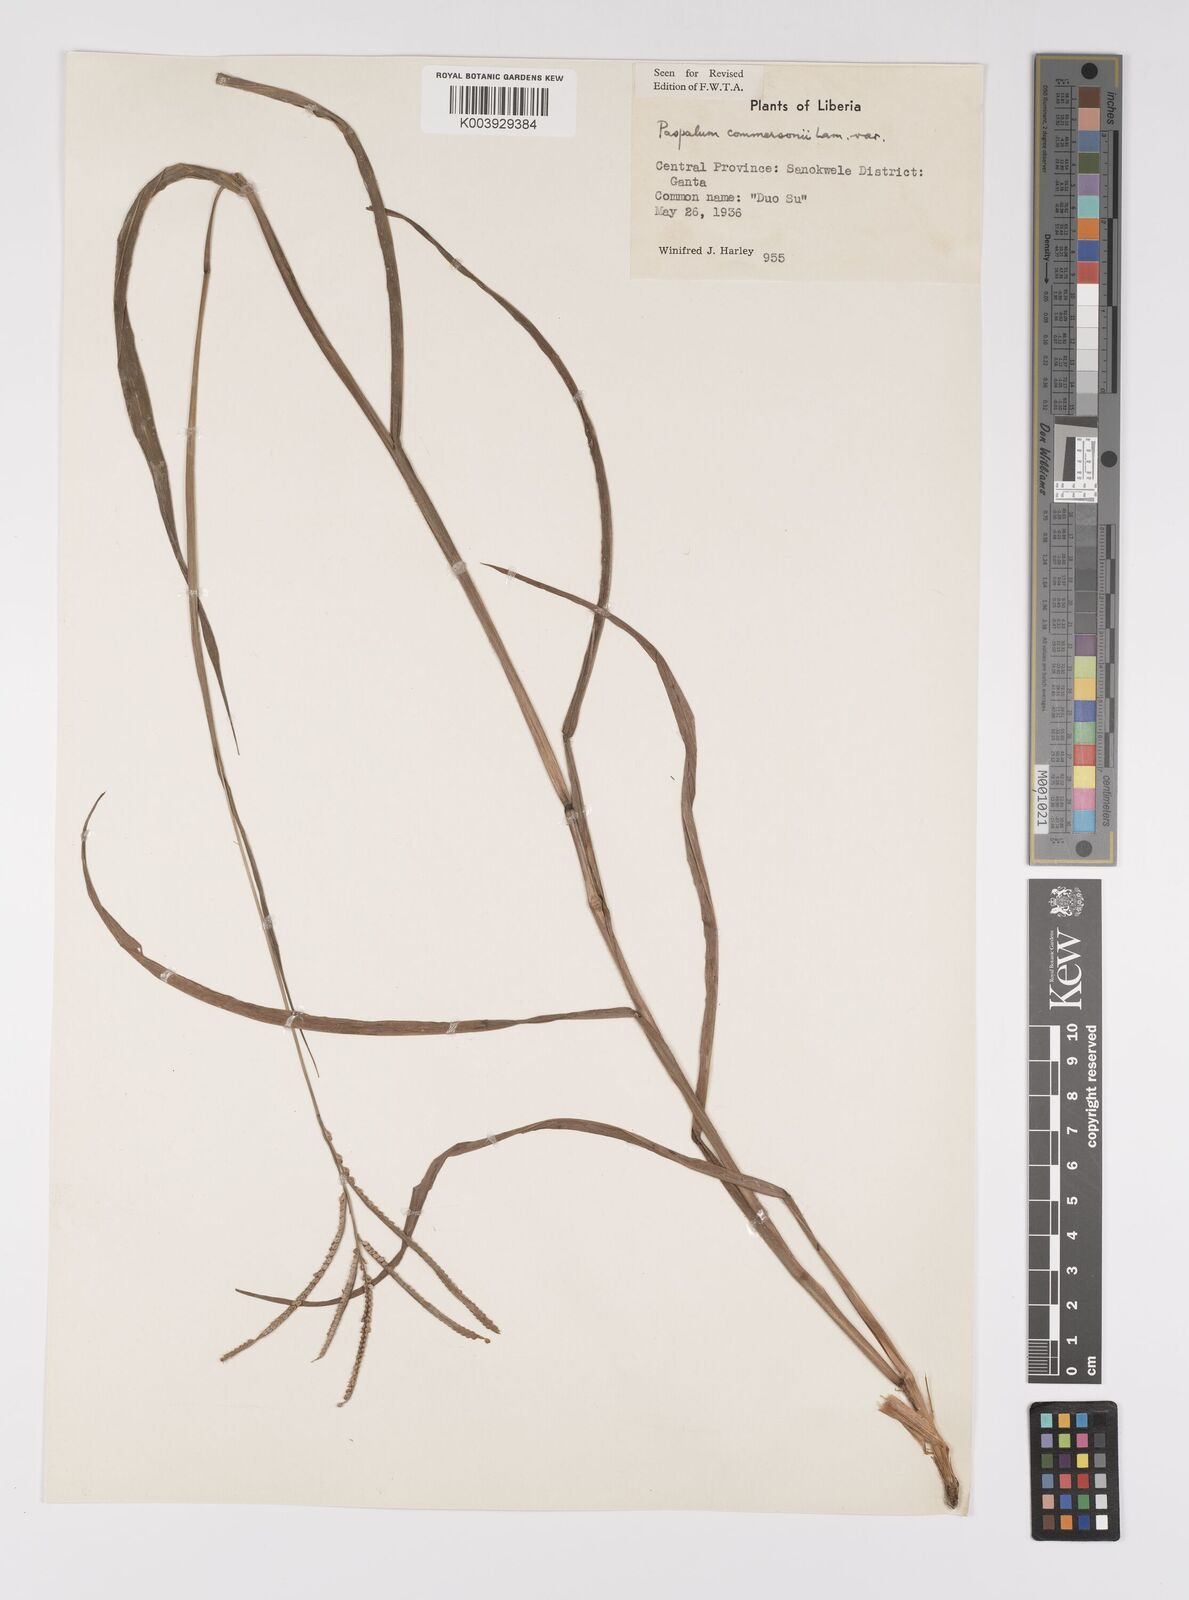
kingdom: Plantae
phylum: Tracheophyta
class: Liliopsida
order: Poales
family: Poaceae
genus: Paspalum
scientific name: Paspalum scrobiculatum
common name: Kodo millet
